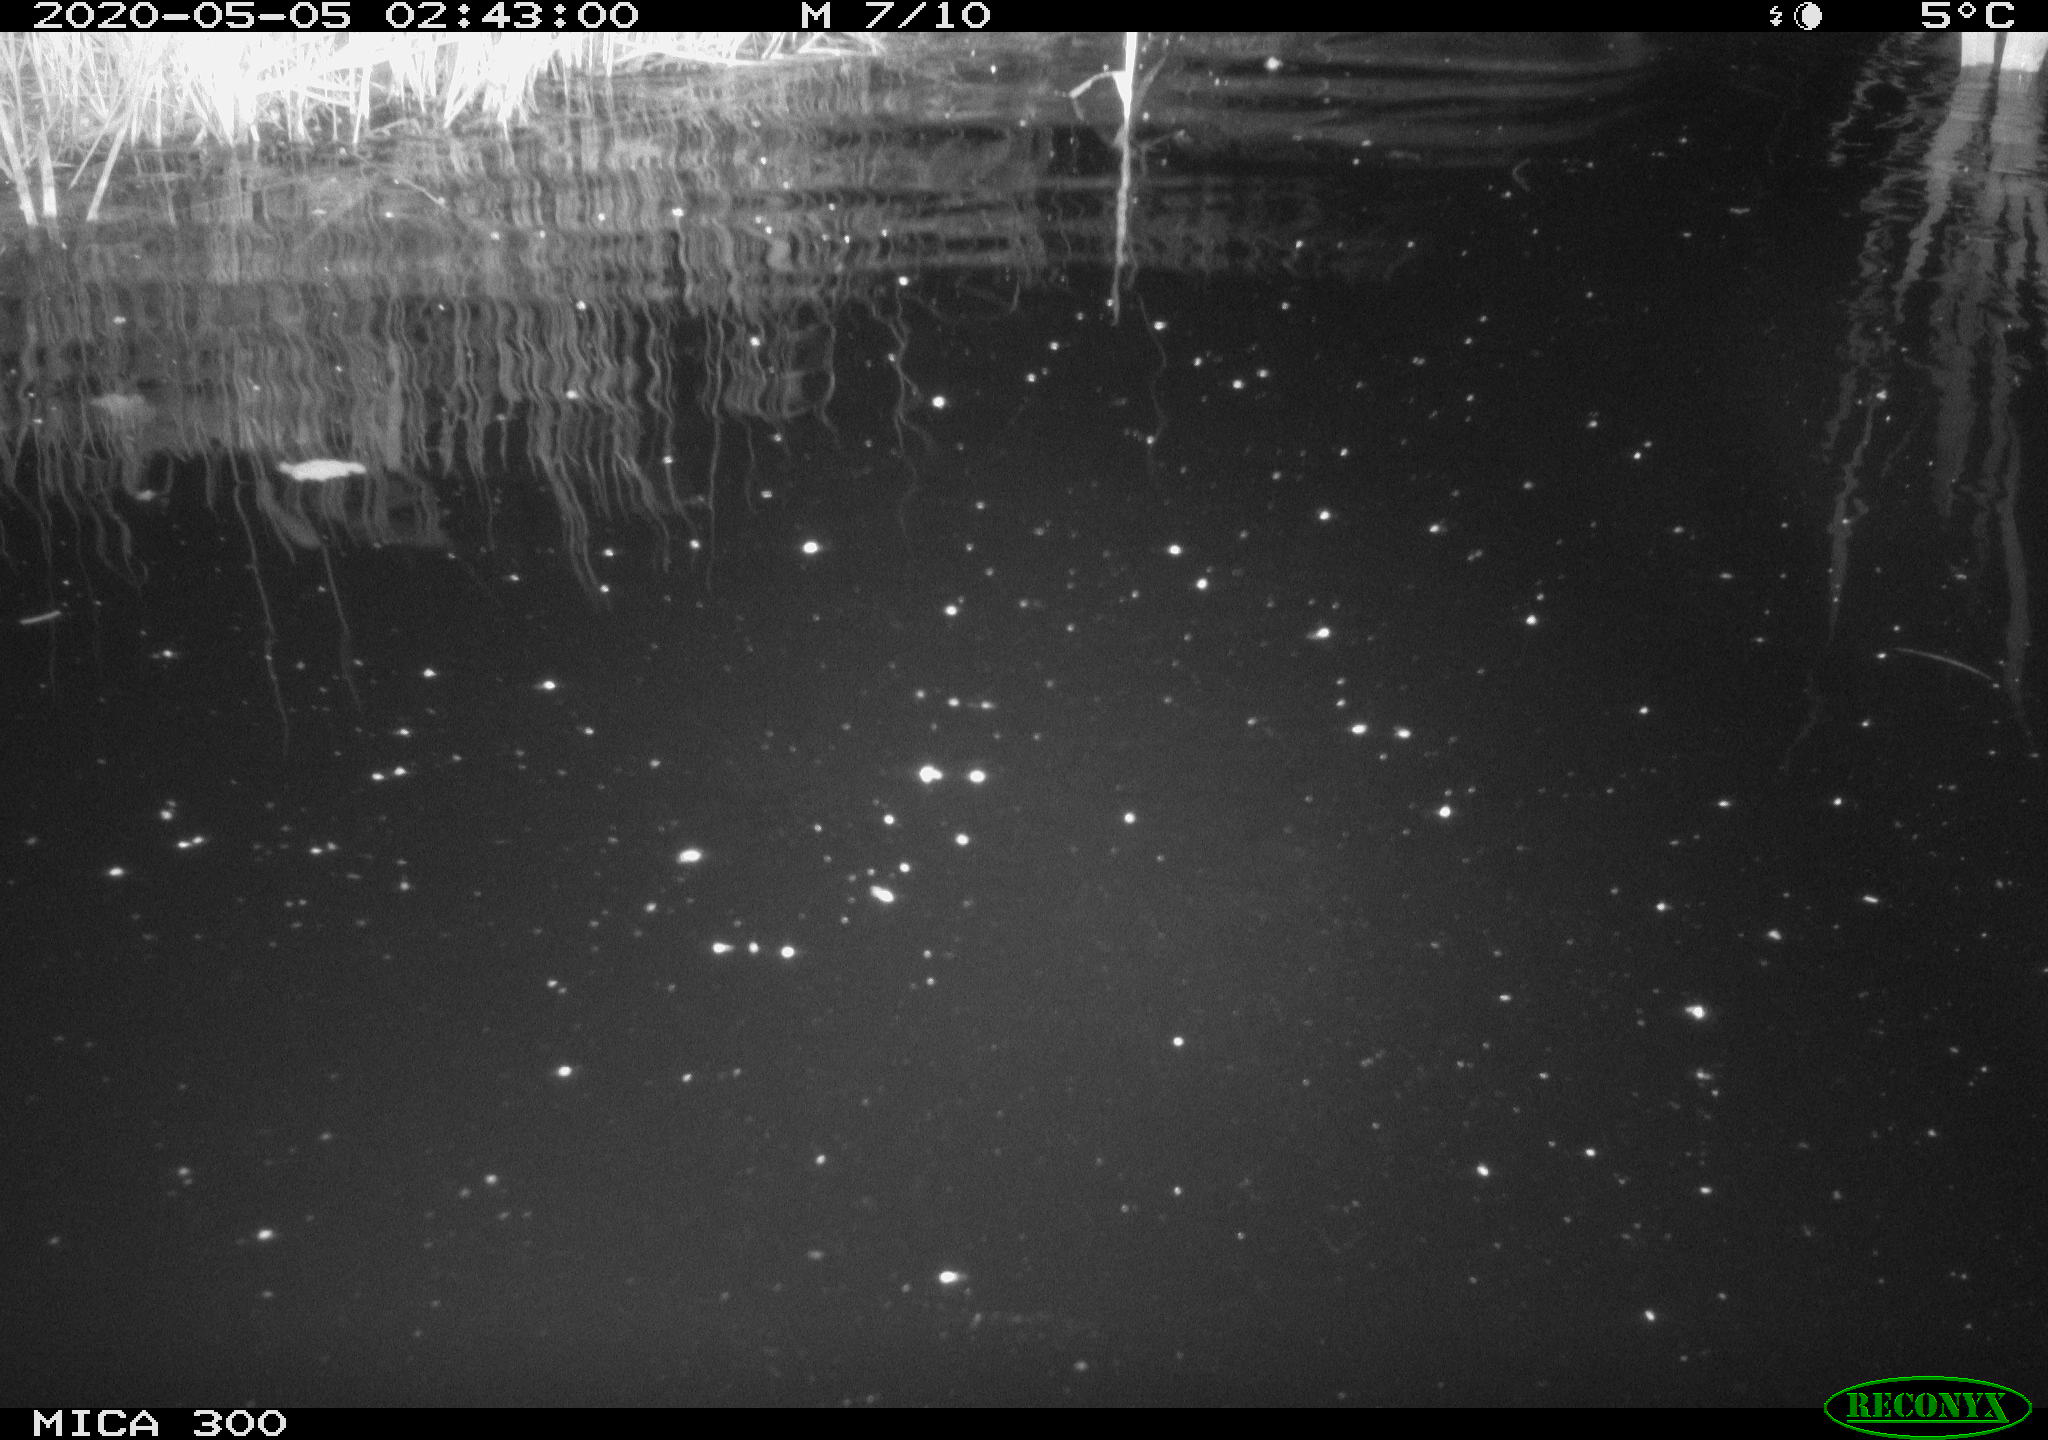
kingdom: Animalia
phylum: Chordata
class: Mammalia
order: Rodentia
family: Castoridae
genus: Castor
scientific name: Castor fiber
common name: Eurasian beaver
